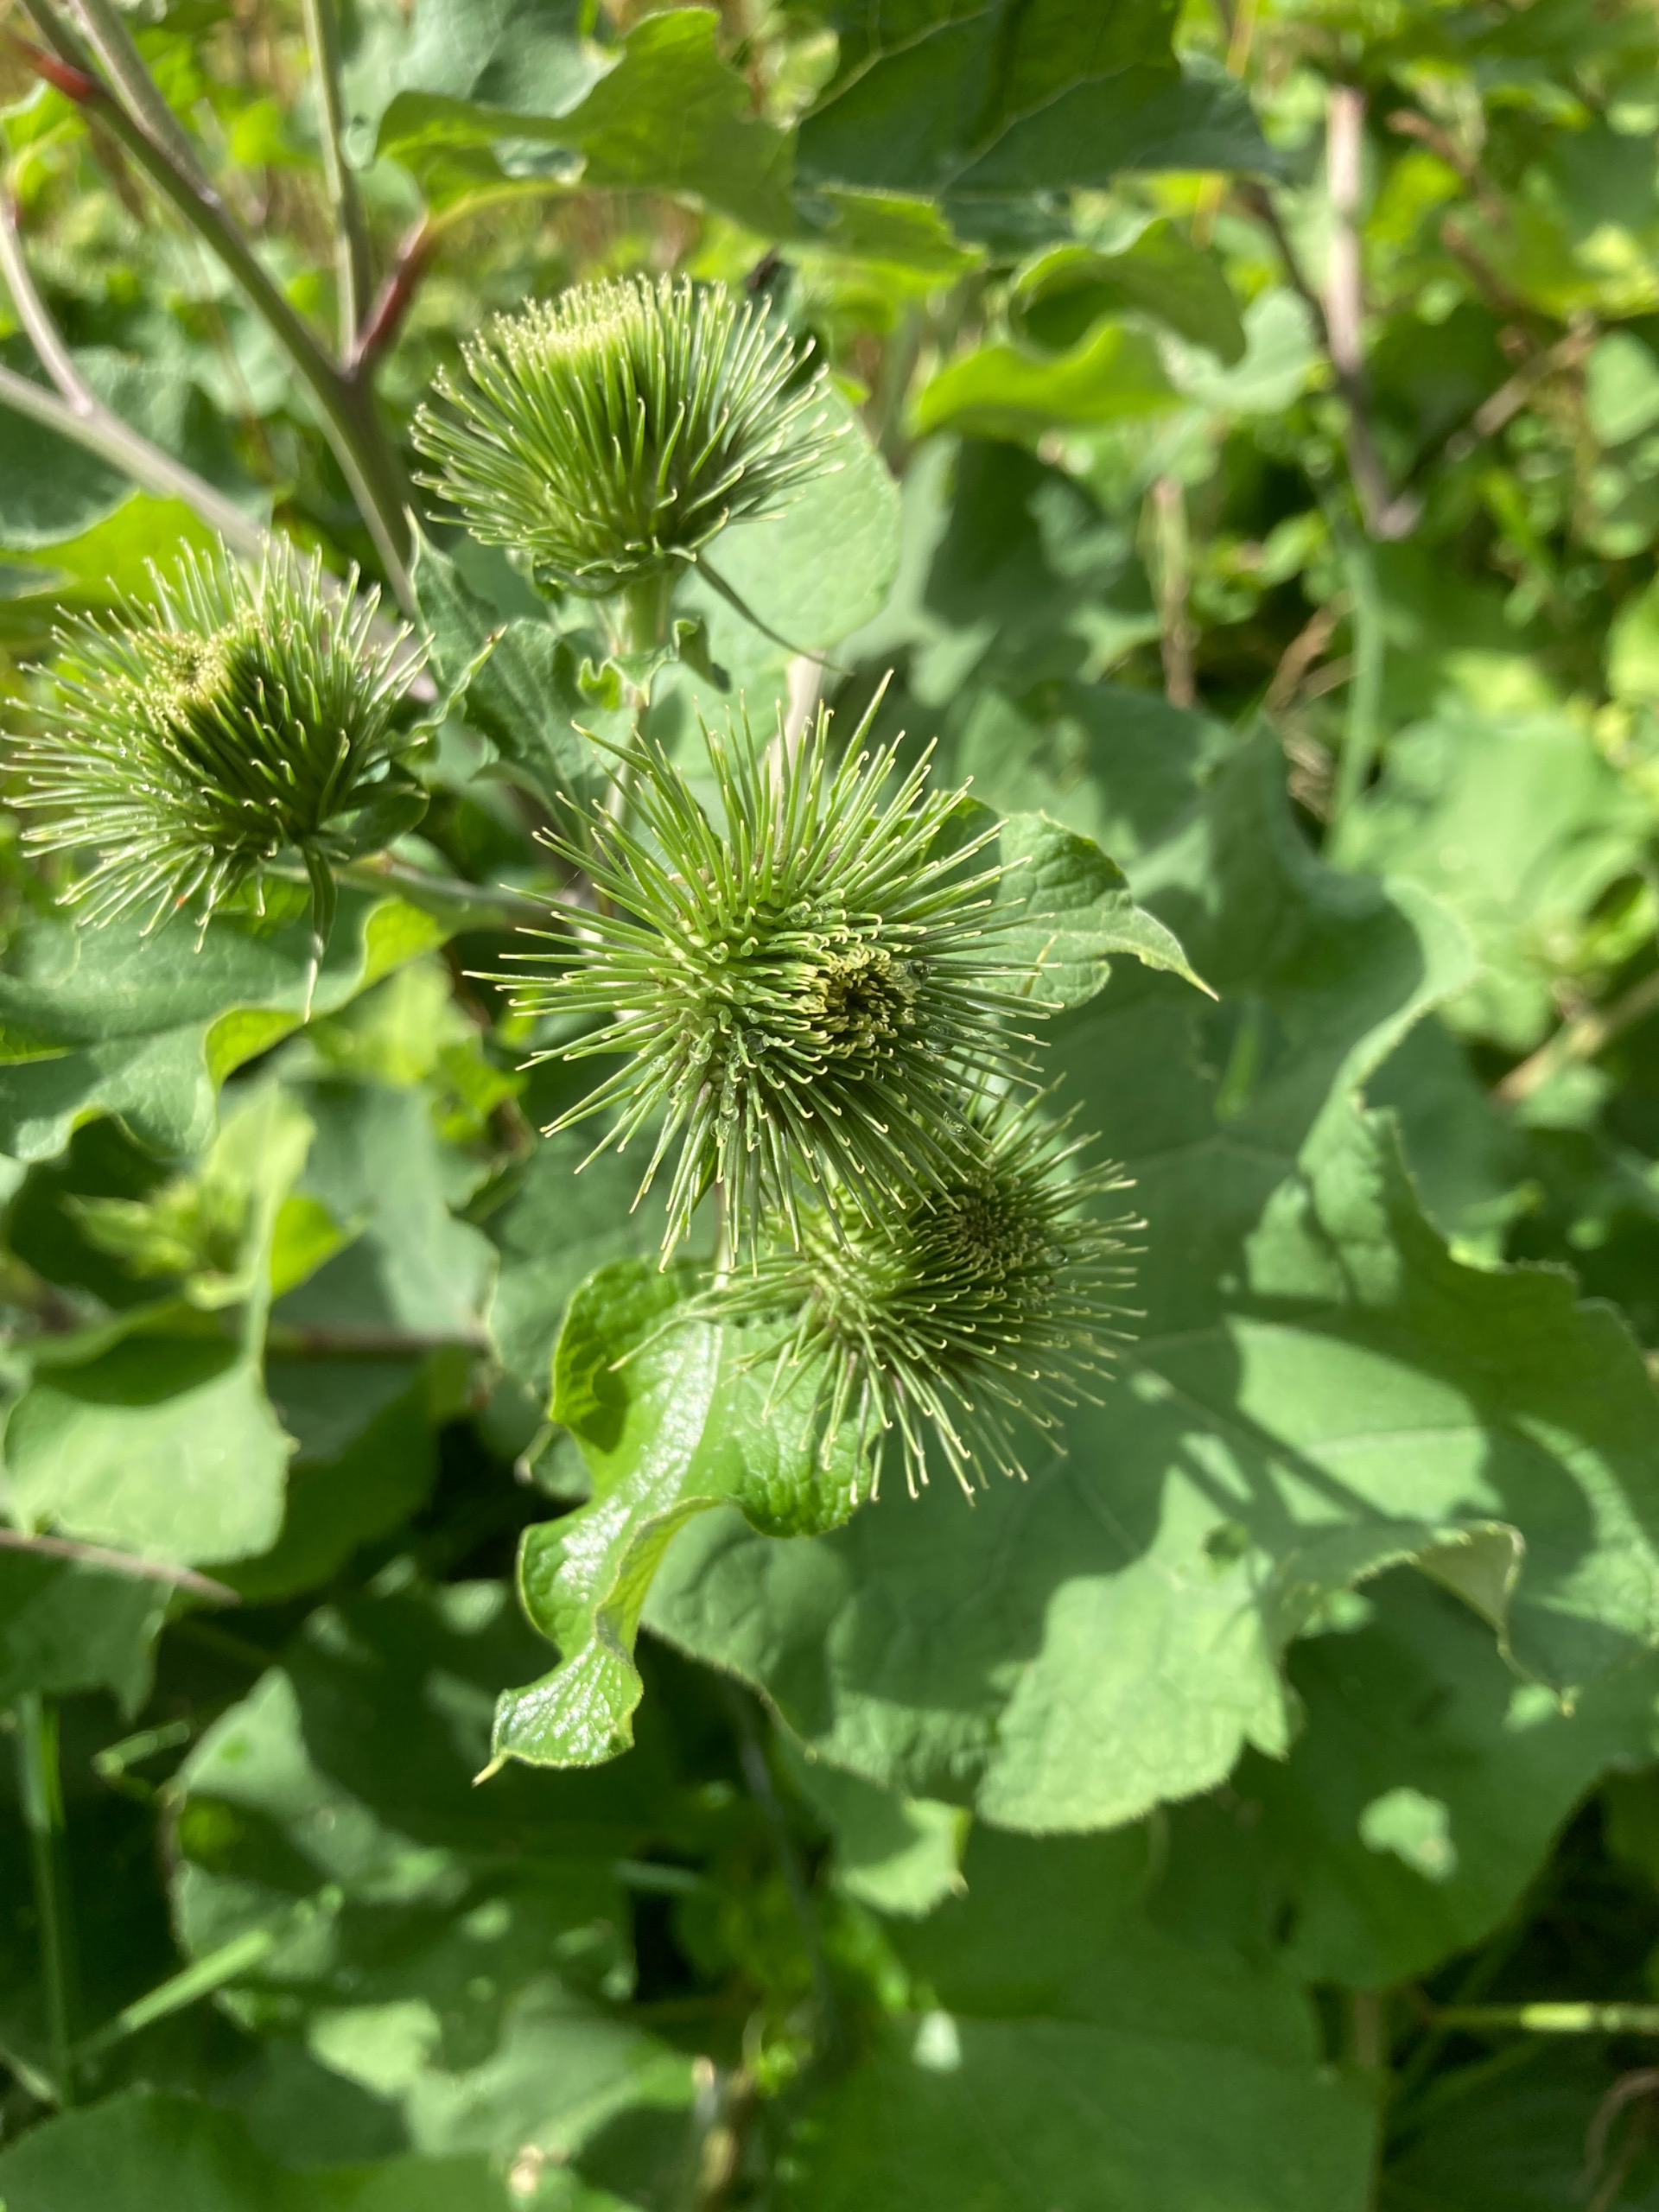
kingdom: Plantae
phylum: Tracheophyta
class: Magnoliopsida
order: Asterales
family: Asteraceae
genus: Arctium
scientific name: Arctium lappa
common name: Glat burre
